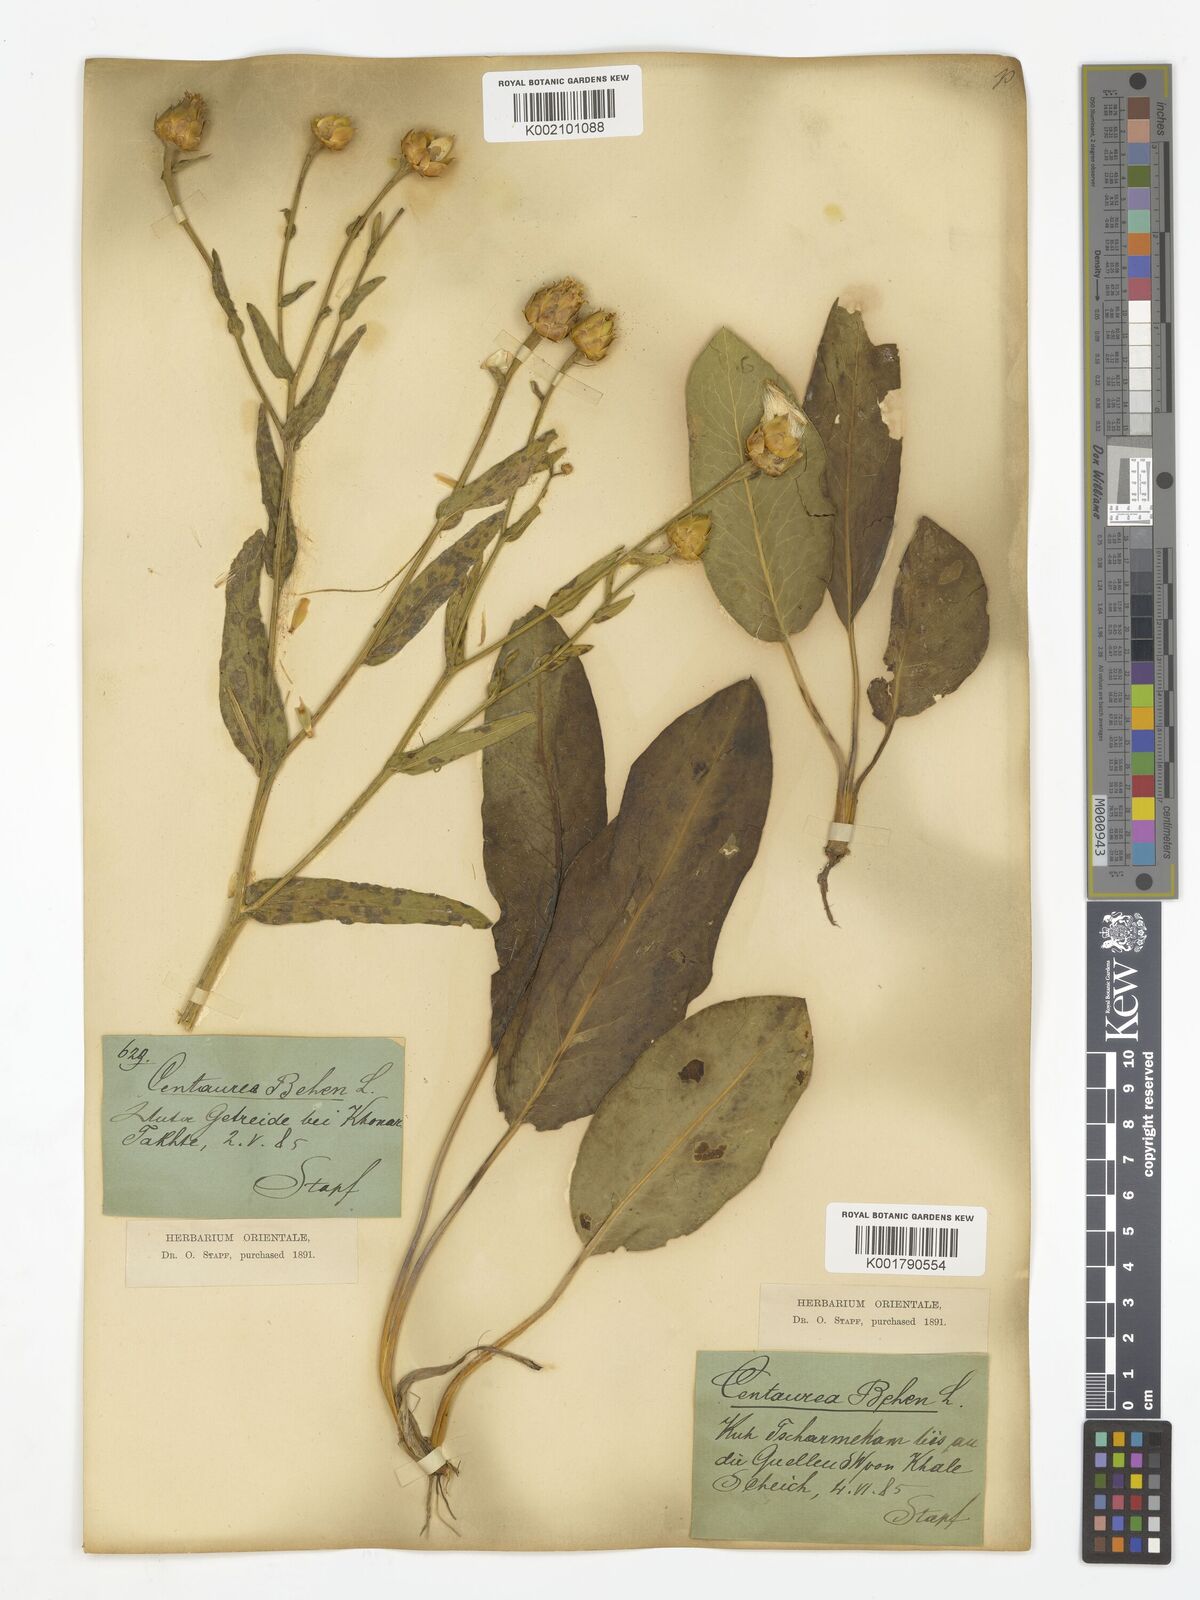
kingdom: Plantae
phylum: Tracheophyta
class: Magnoliopsida
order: Asterales
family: Asteraceae
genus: Centaurea
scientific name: Centaurea behen
